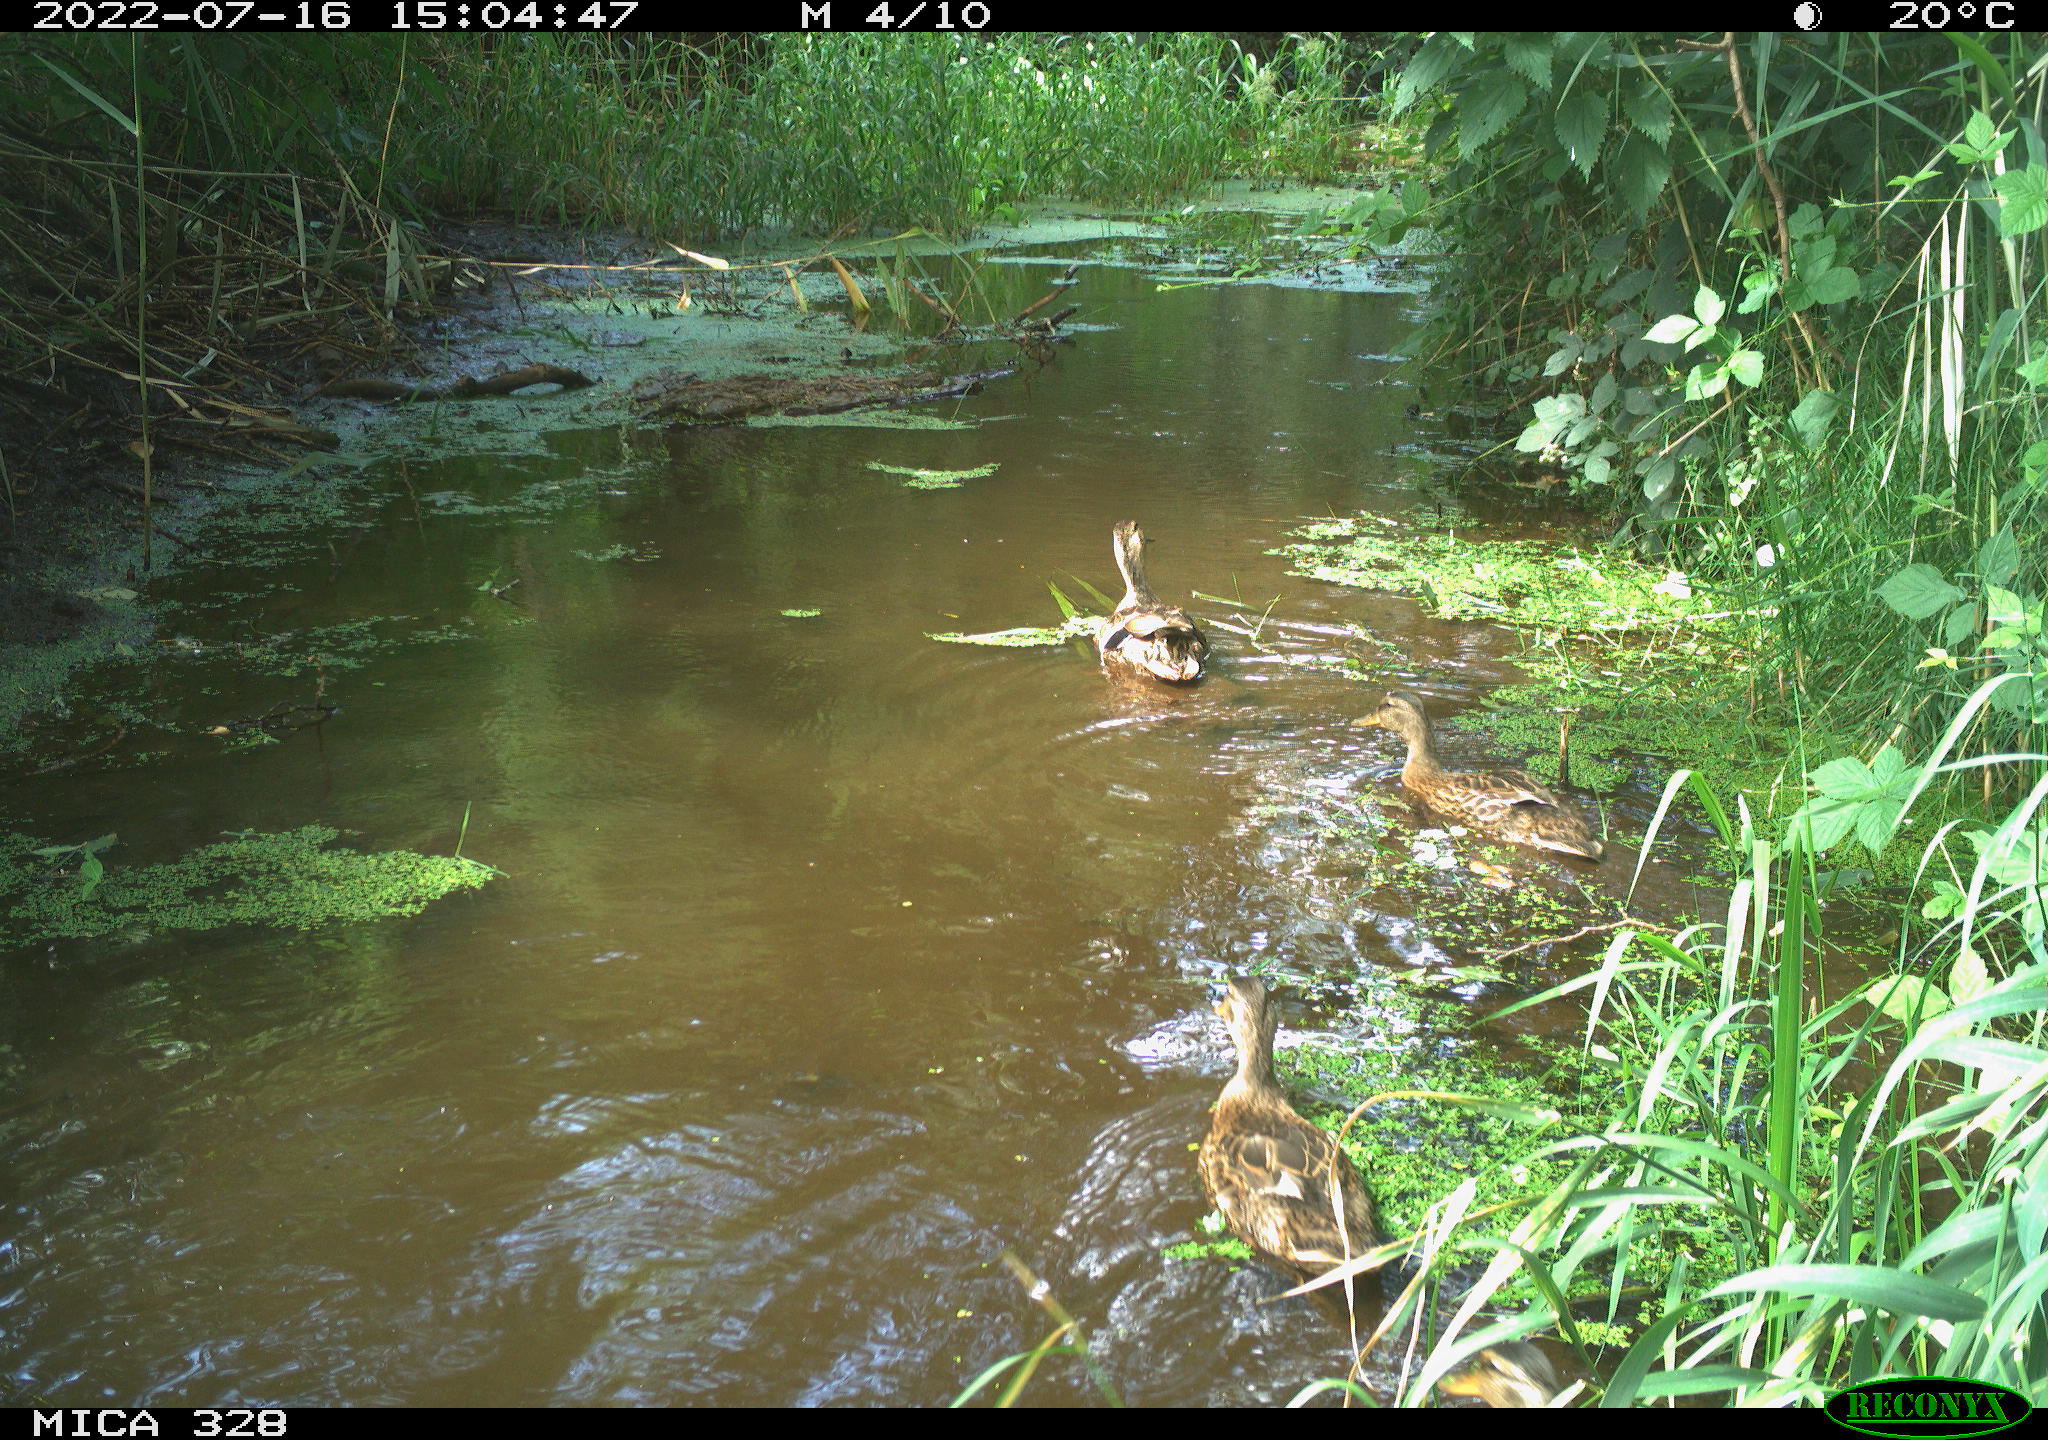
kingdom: Animalia
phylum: Chordata
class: Aves
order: Anseriformes
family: Anatidae
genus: Anas
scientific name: Anas
